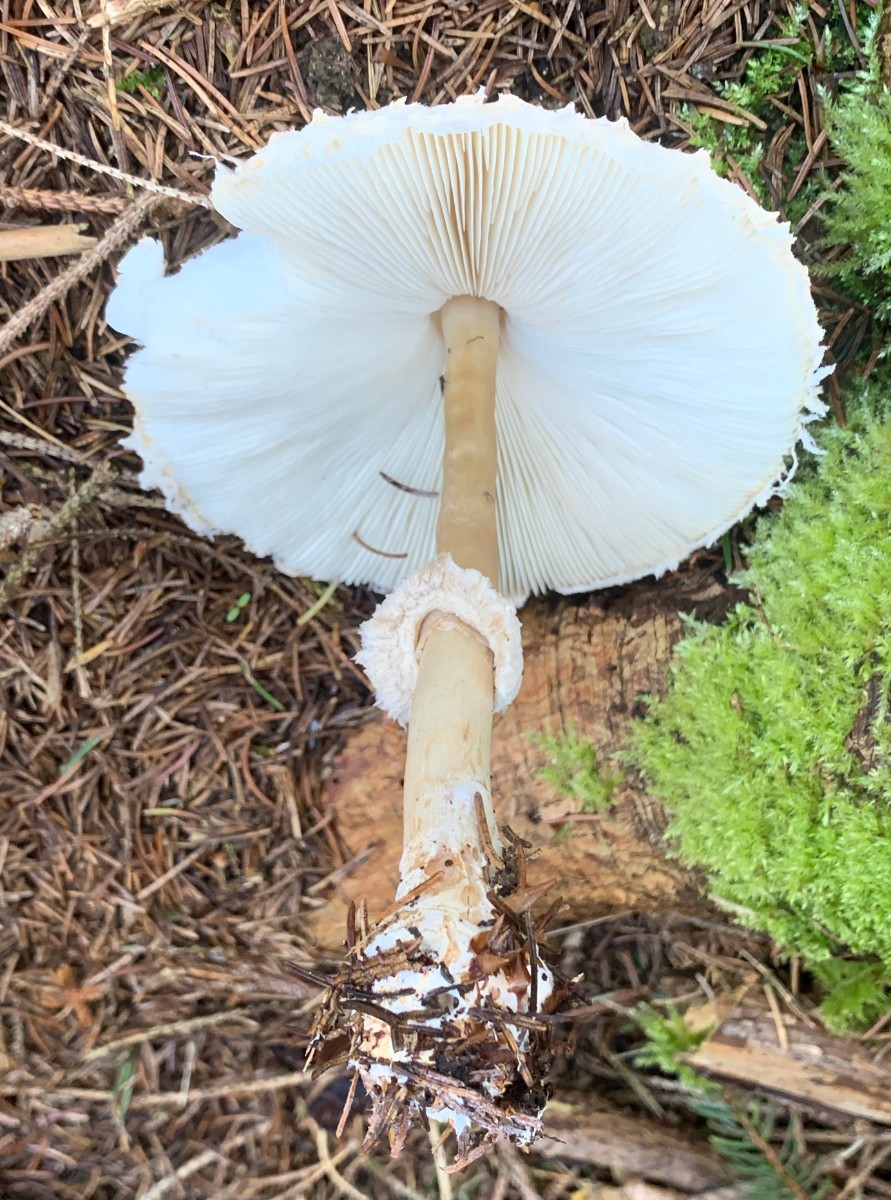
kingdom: Fungi
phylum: Basidiomycota
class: Agaricomycetes
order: Agaricales
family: Agaricaceae
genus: Leucoagaricus
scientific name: Leucoagaricus nympharum
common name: gran-silkehat
